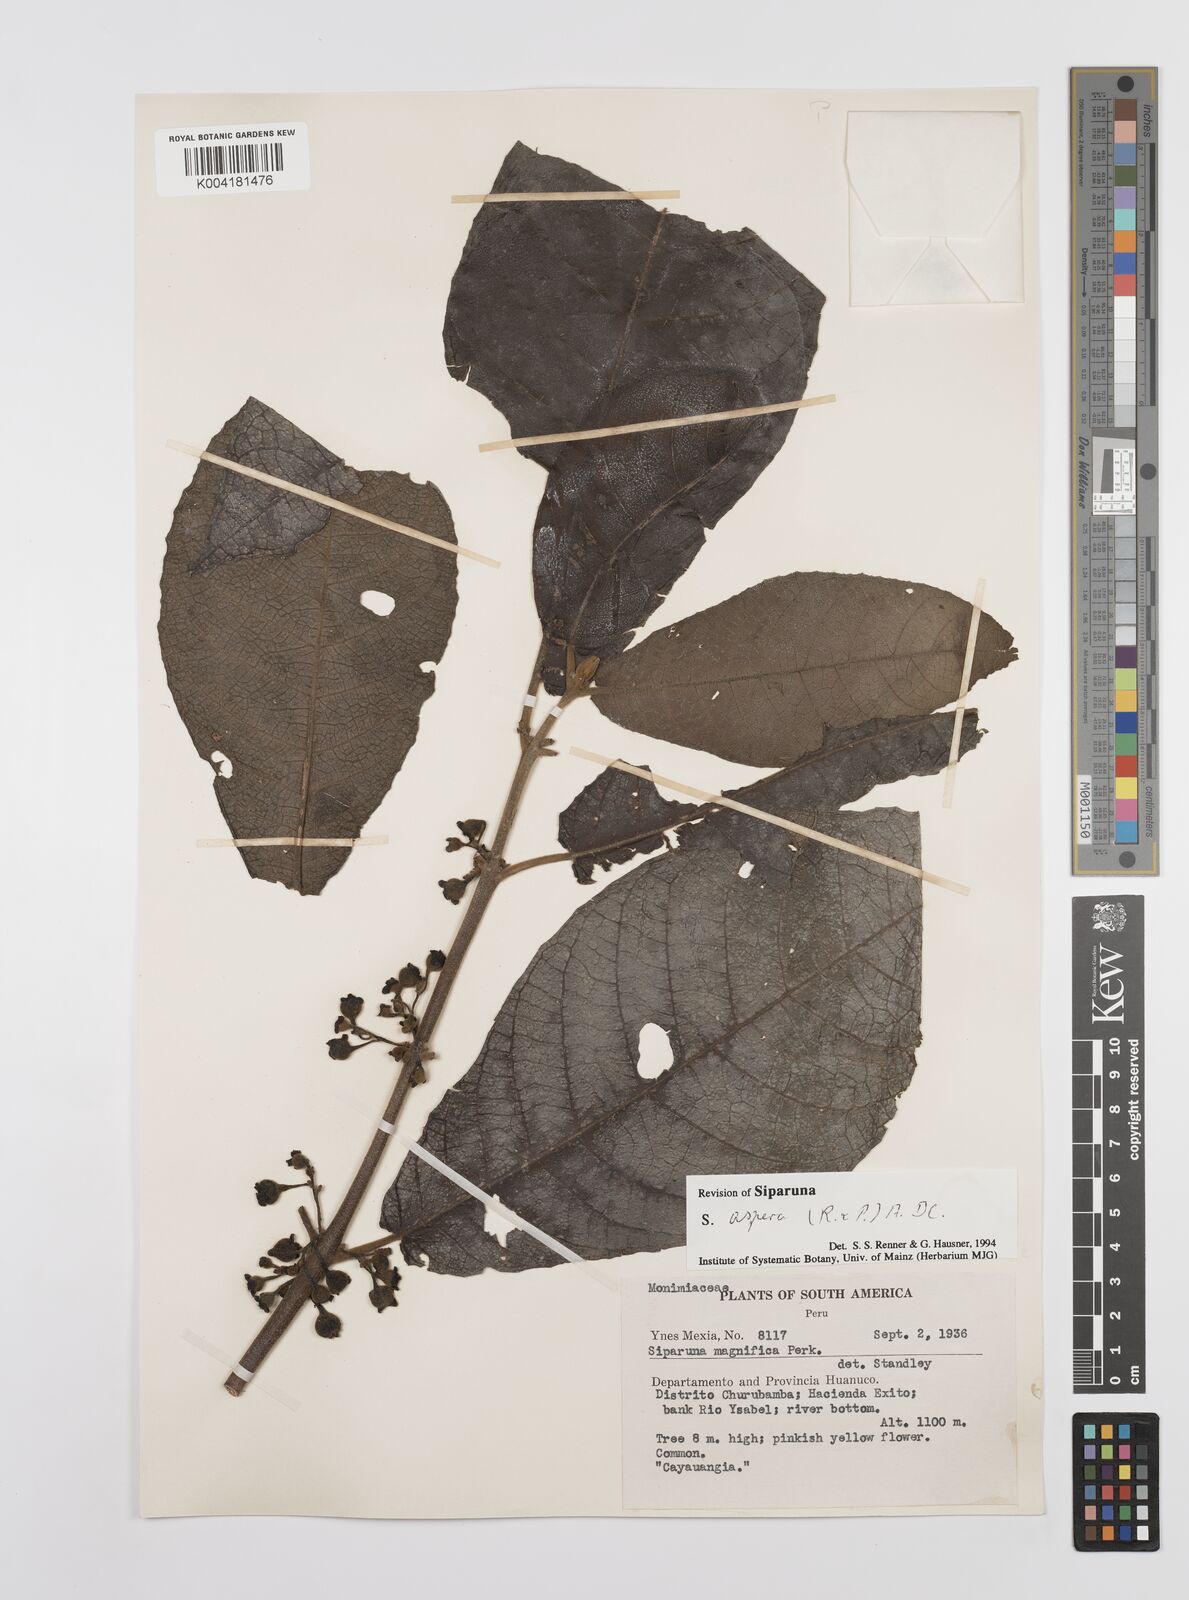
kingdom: Plantae
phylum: Tracheophyta
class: Magnoliopsida
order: Laurales
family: Siparunaceae
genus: Siparuna
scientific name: Siparuna aspera
